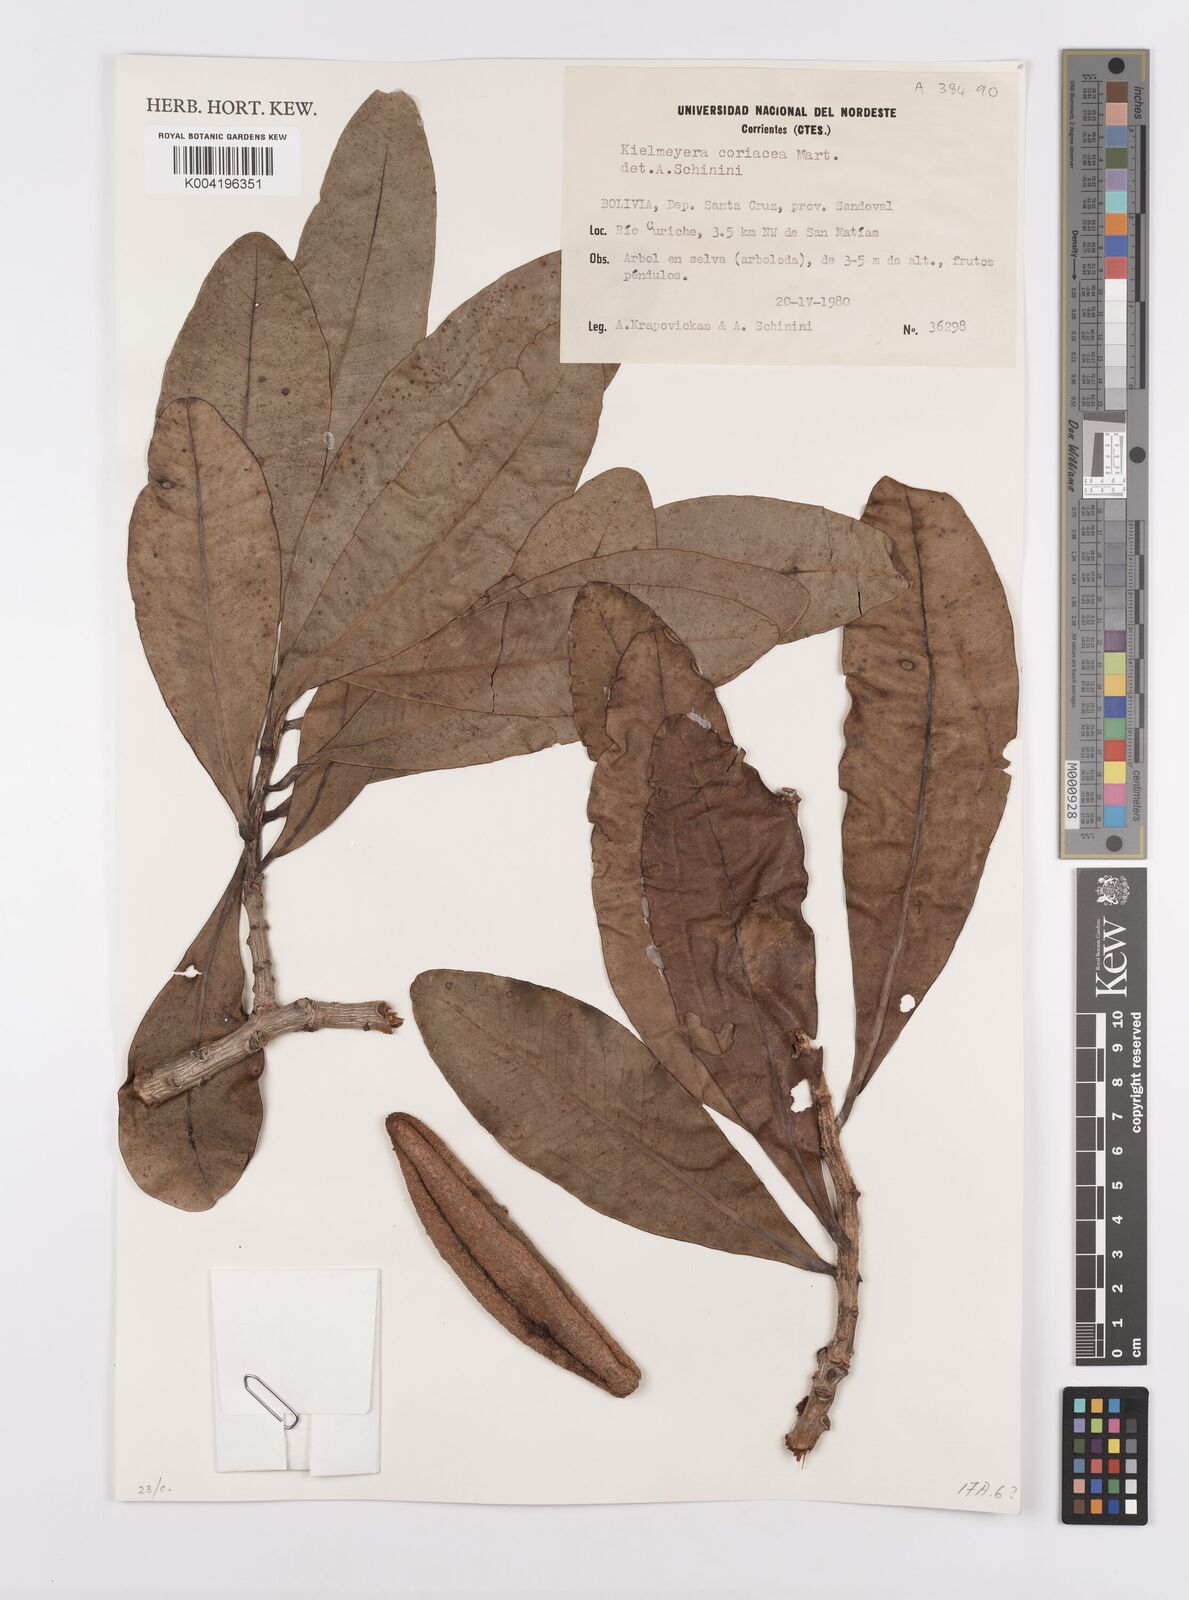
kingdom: Plantae
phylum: Tracheophyta
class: Magnoliopsida
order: Malpighiales
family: Calophyllaceae
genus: Kielmeyera
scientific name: Kielmeyera coriacea
